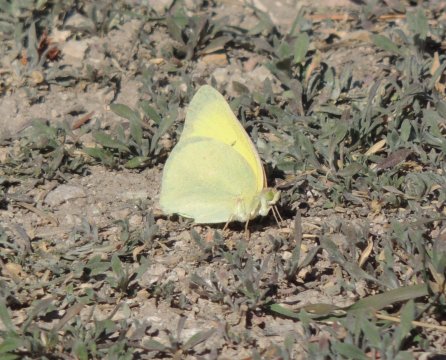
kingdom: Animalia
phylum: Arthropoda
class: Insecta
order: Lepidoptera
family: Pieridae
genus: Colias
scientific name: Colias alexandra
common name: Queen Alexandra's Sulphur
